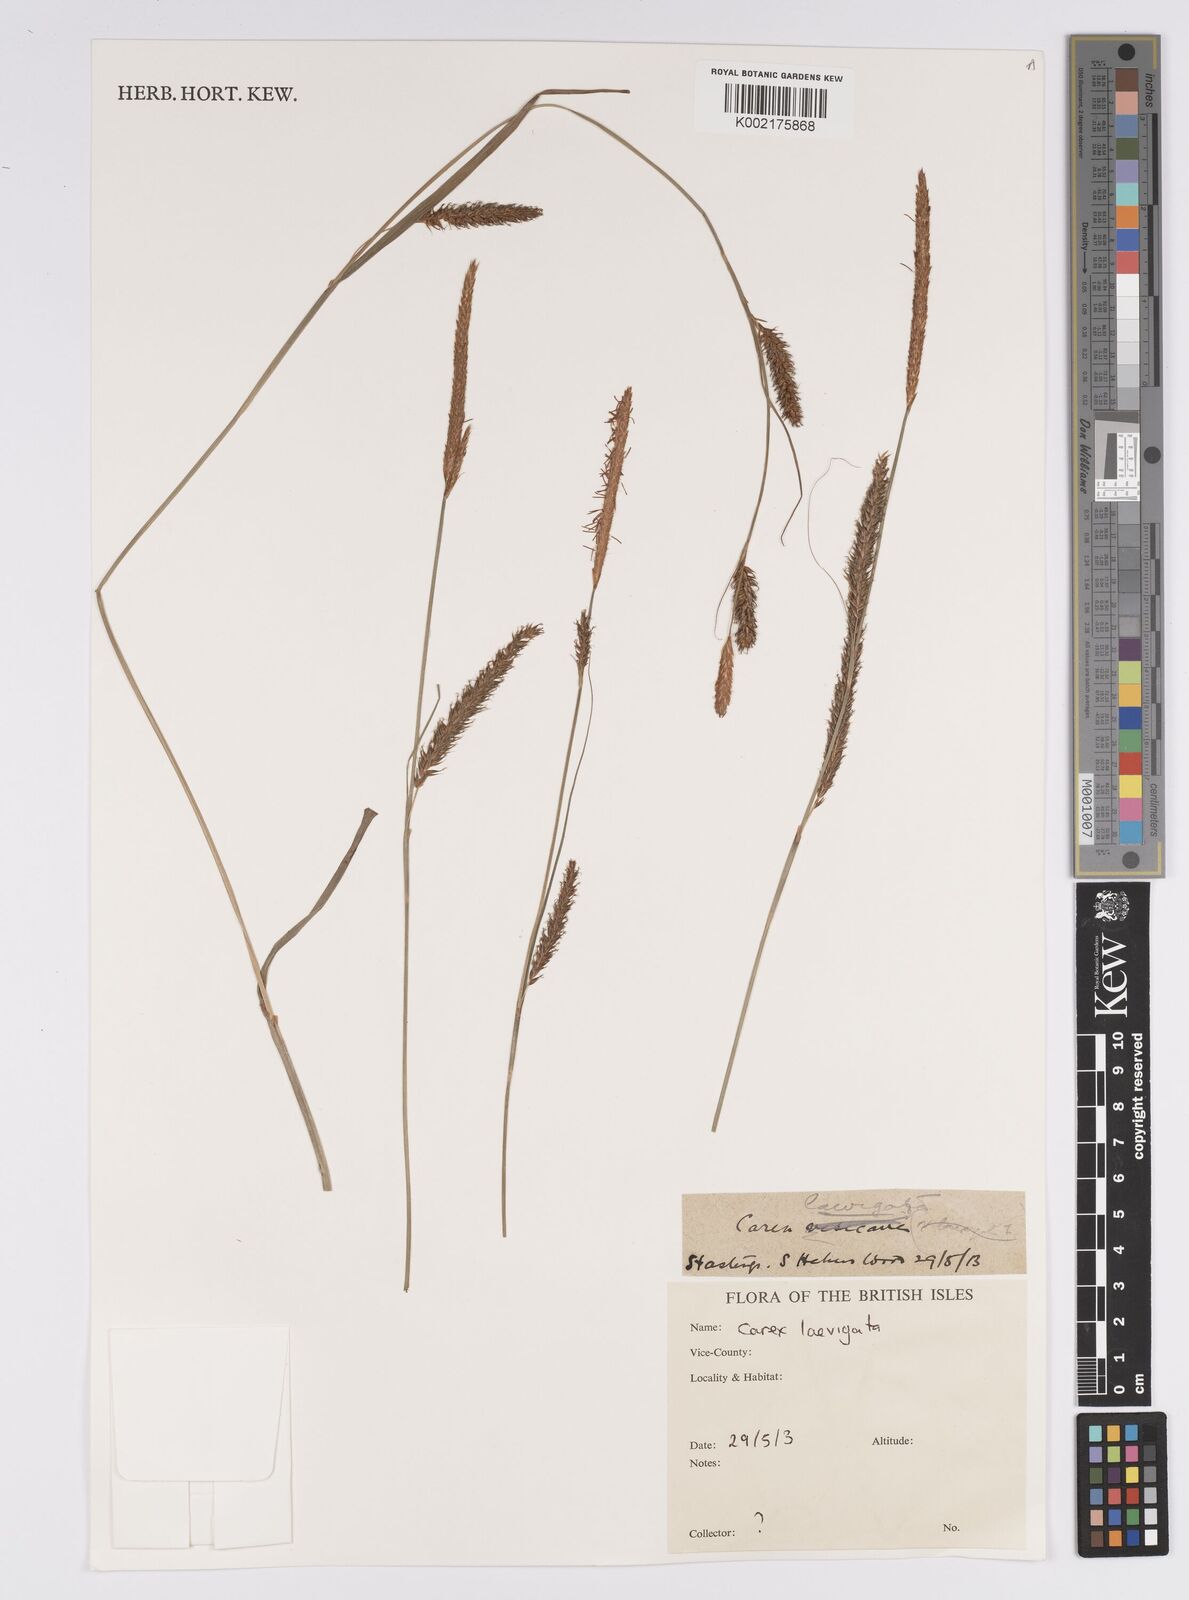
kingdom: Plantae
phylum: Tracheophyta
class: Liliopsida
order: Poales
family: Cyperaceae
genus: Carex
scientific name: Carex laevigata
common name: Smooth-stalked sedge
